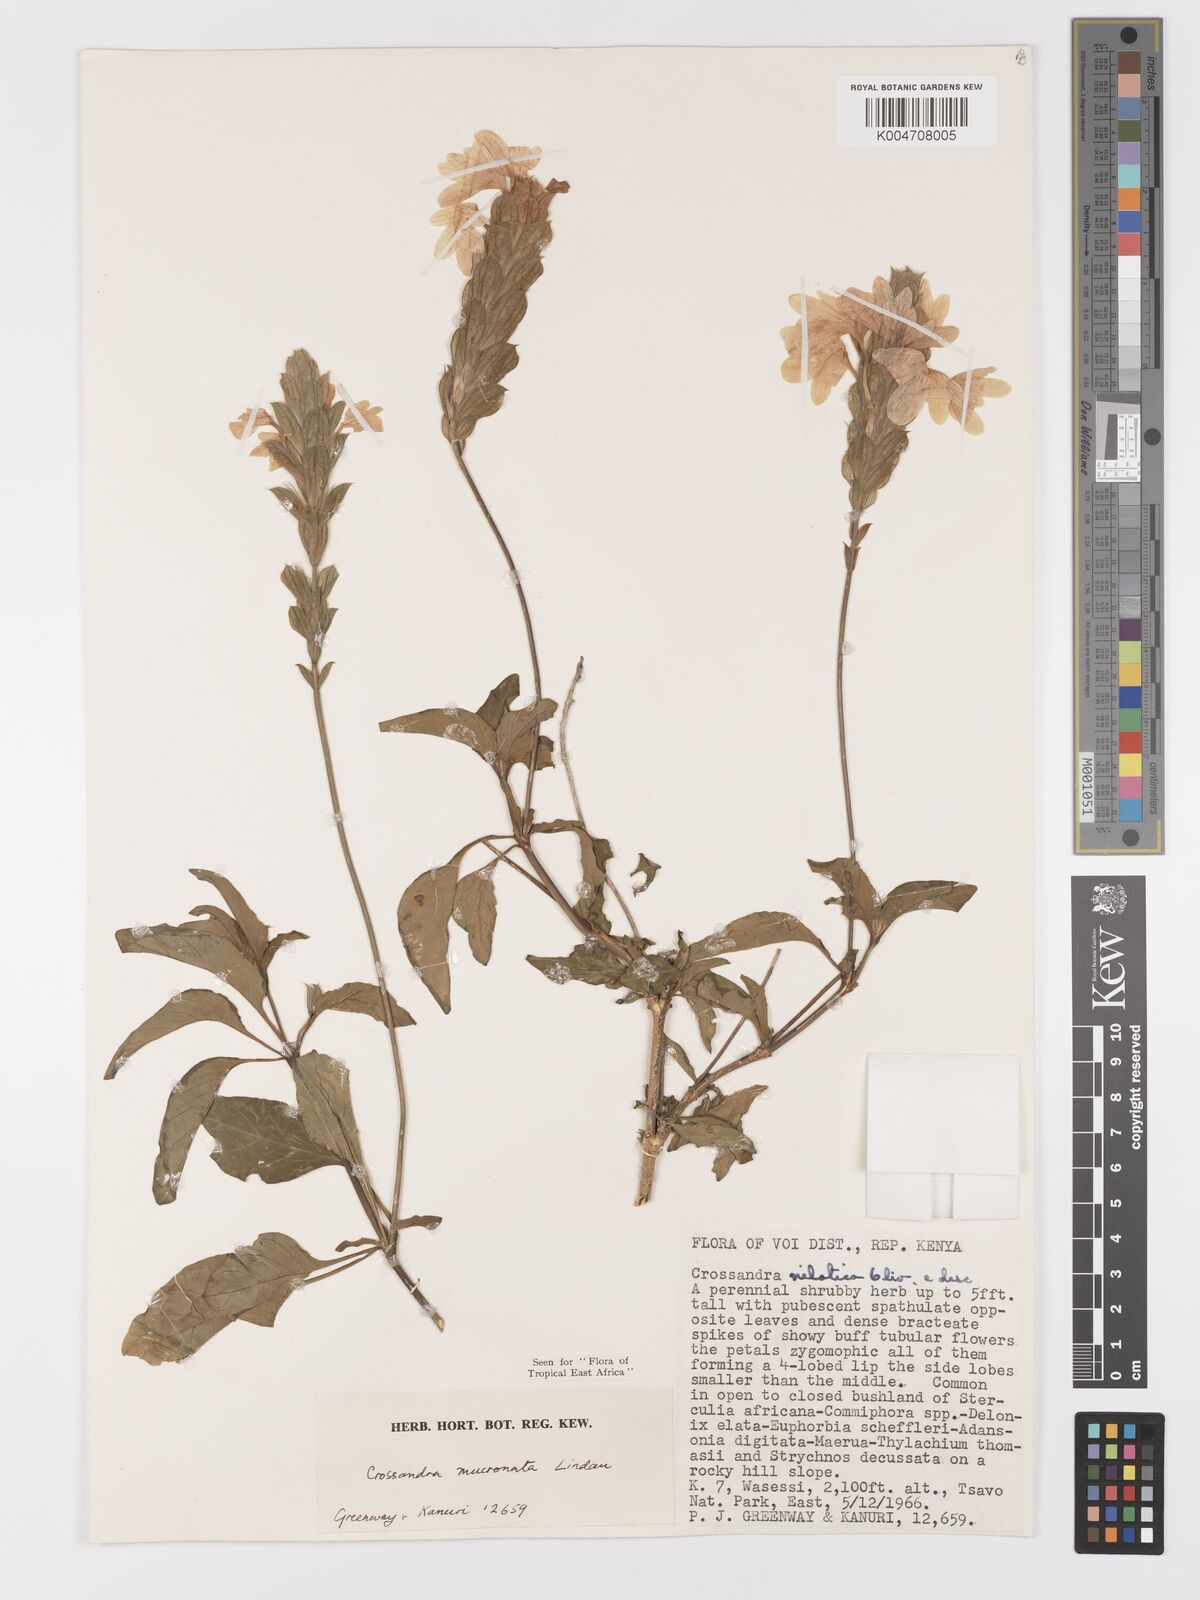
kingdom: Plantae
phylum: Tracheophyta
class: Magnoliopsida
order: Lamiales
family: Acanthaceae
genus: Crossandra
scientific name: Crossandra mucronata
